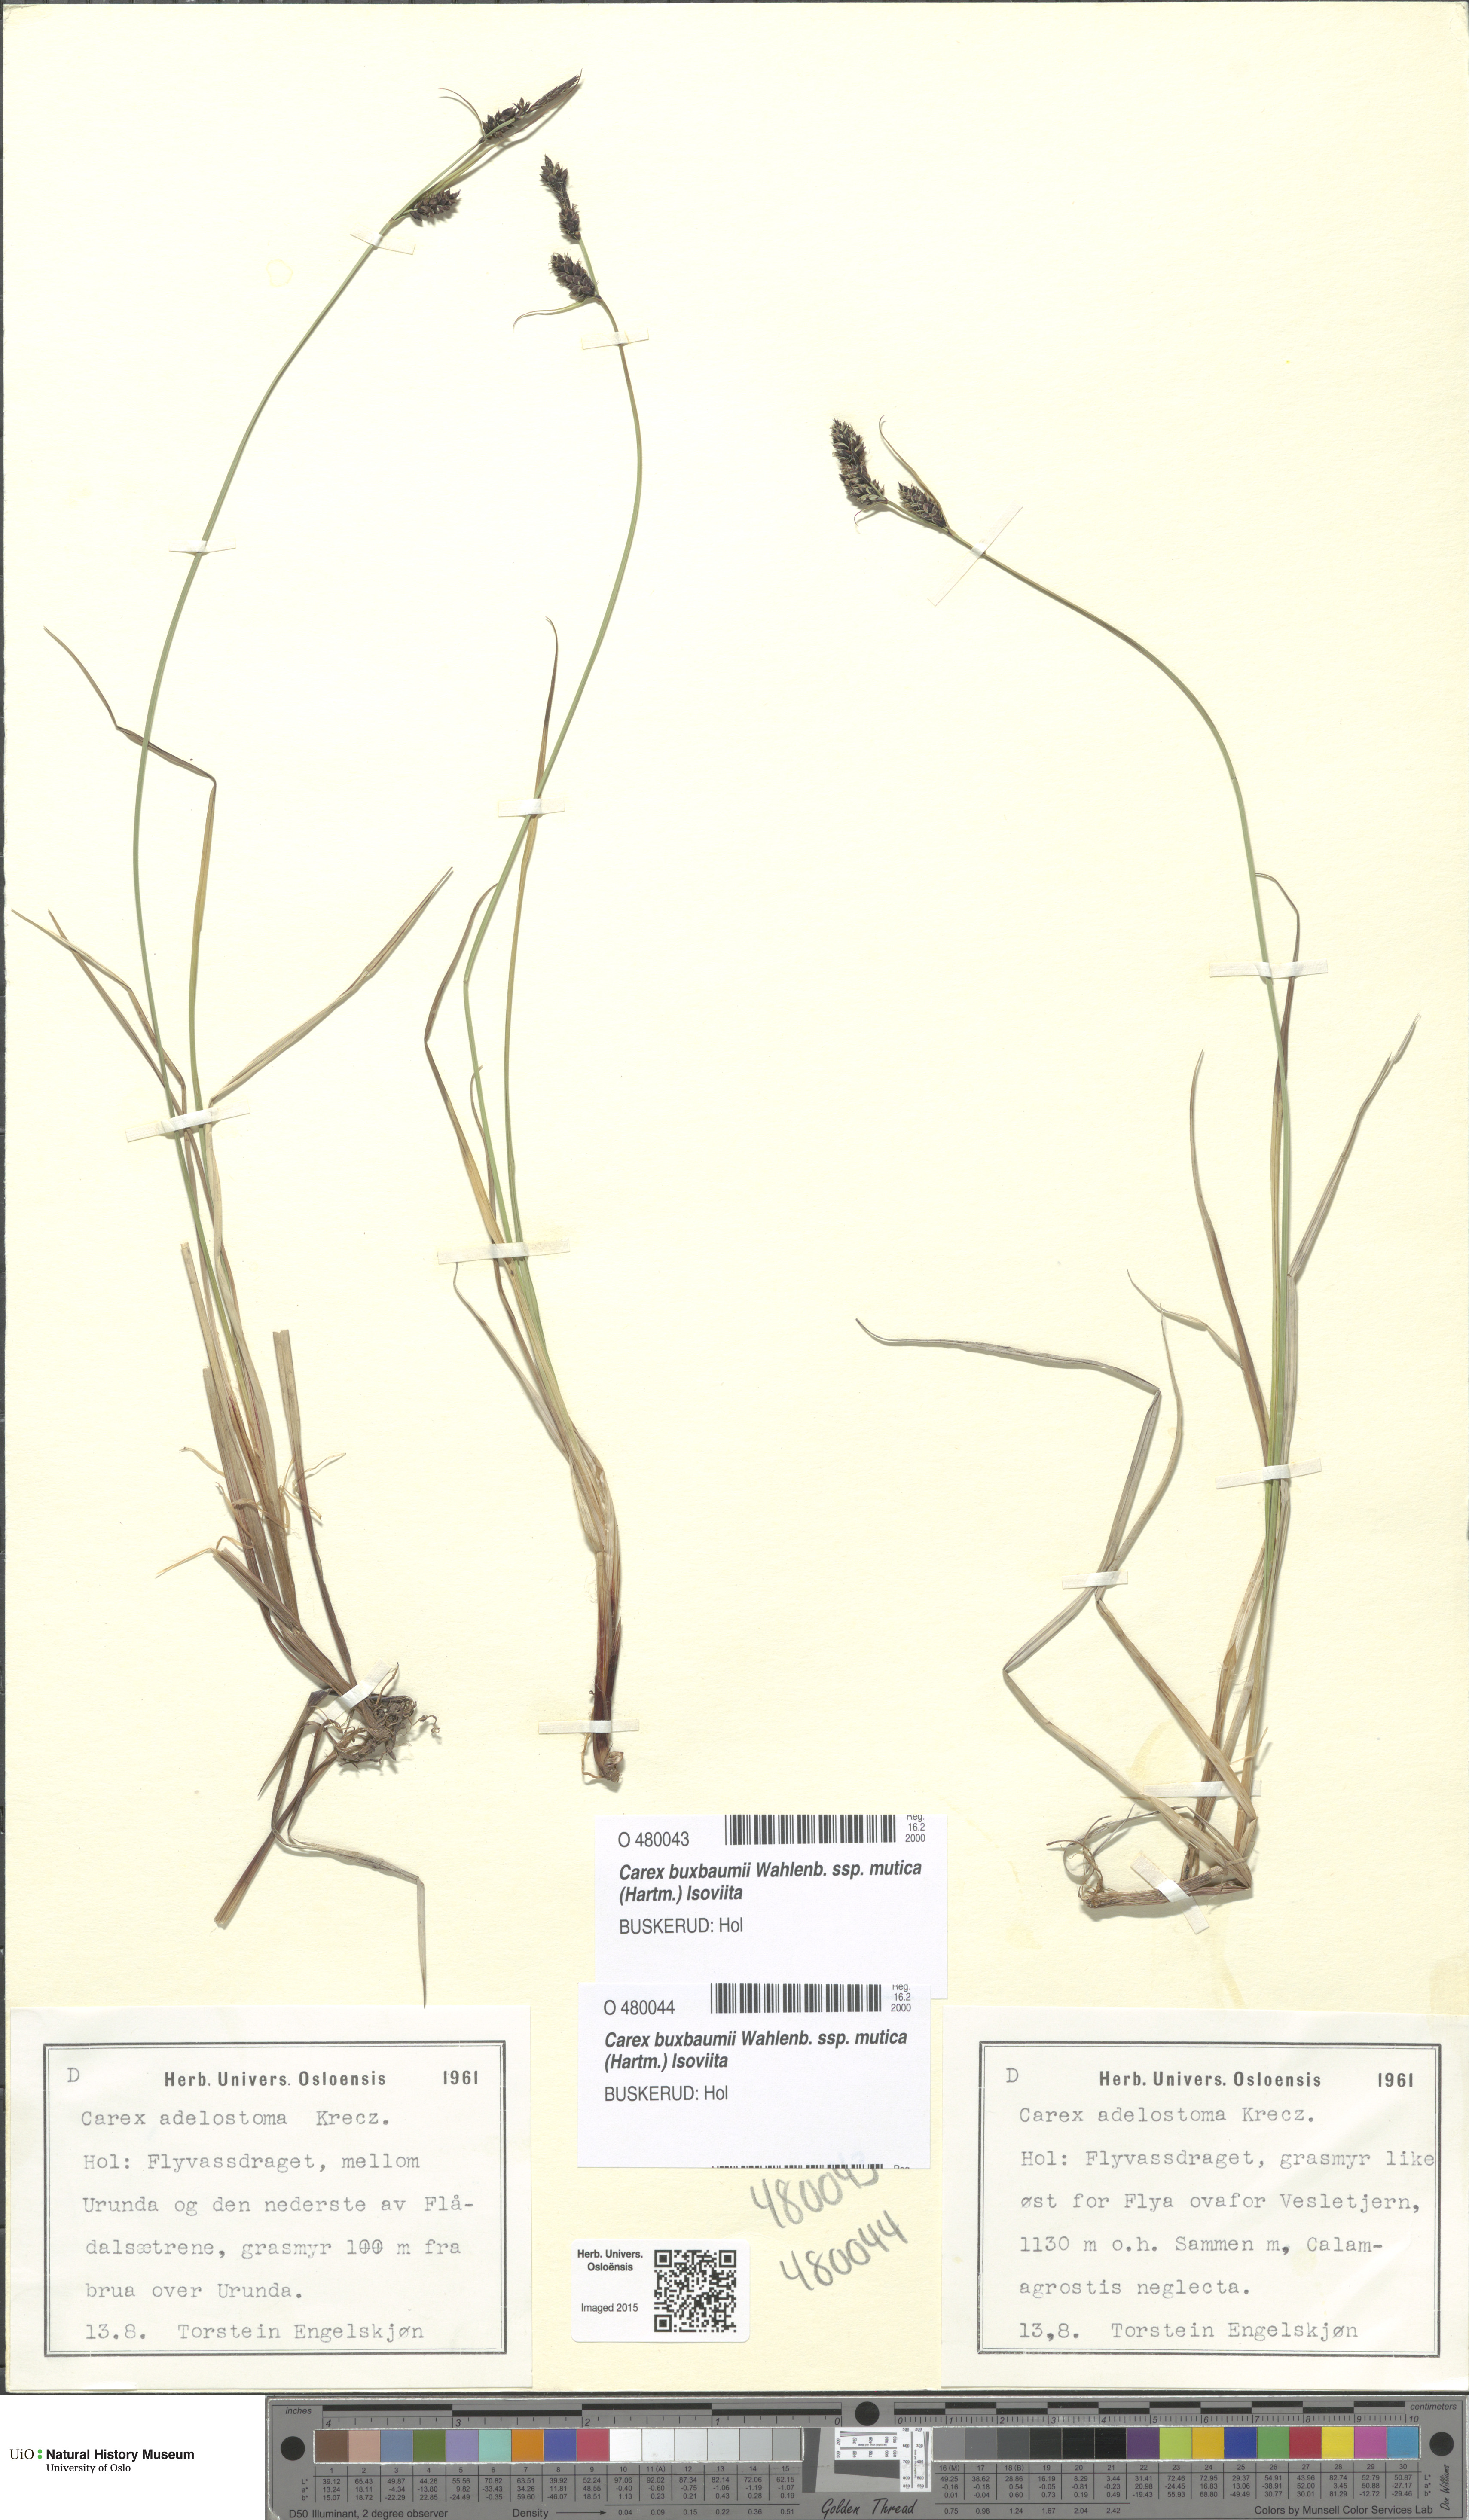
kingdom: Plantae
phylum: Tracheophyta
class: Liliopsida
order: Poales
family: Cyperaceae
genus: Carex
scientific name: Carex adelostoma
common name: Circumpolar sedge
